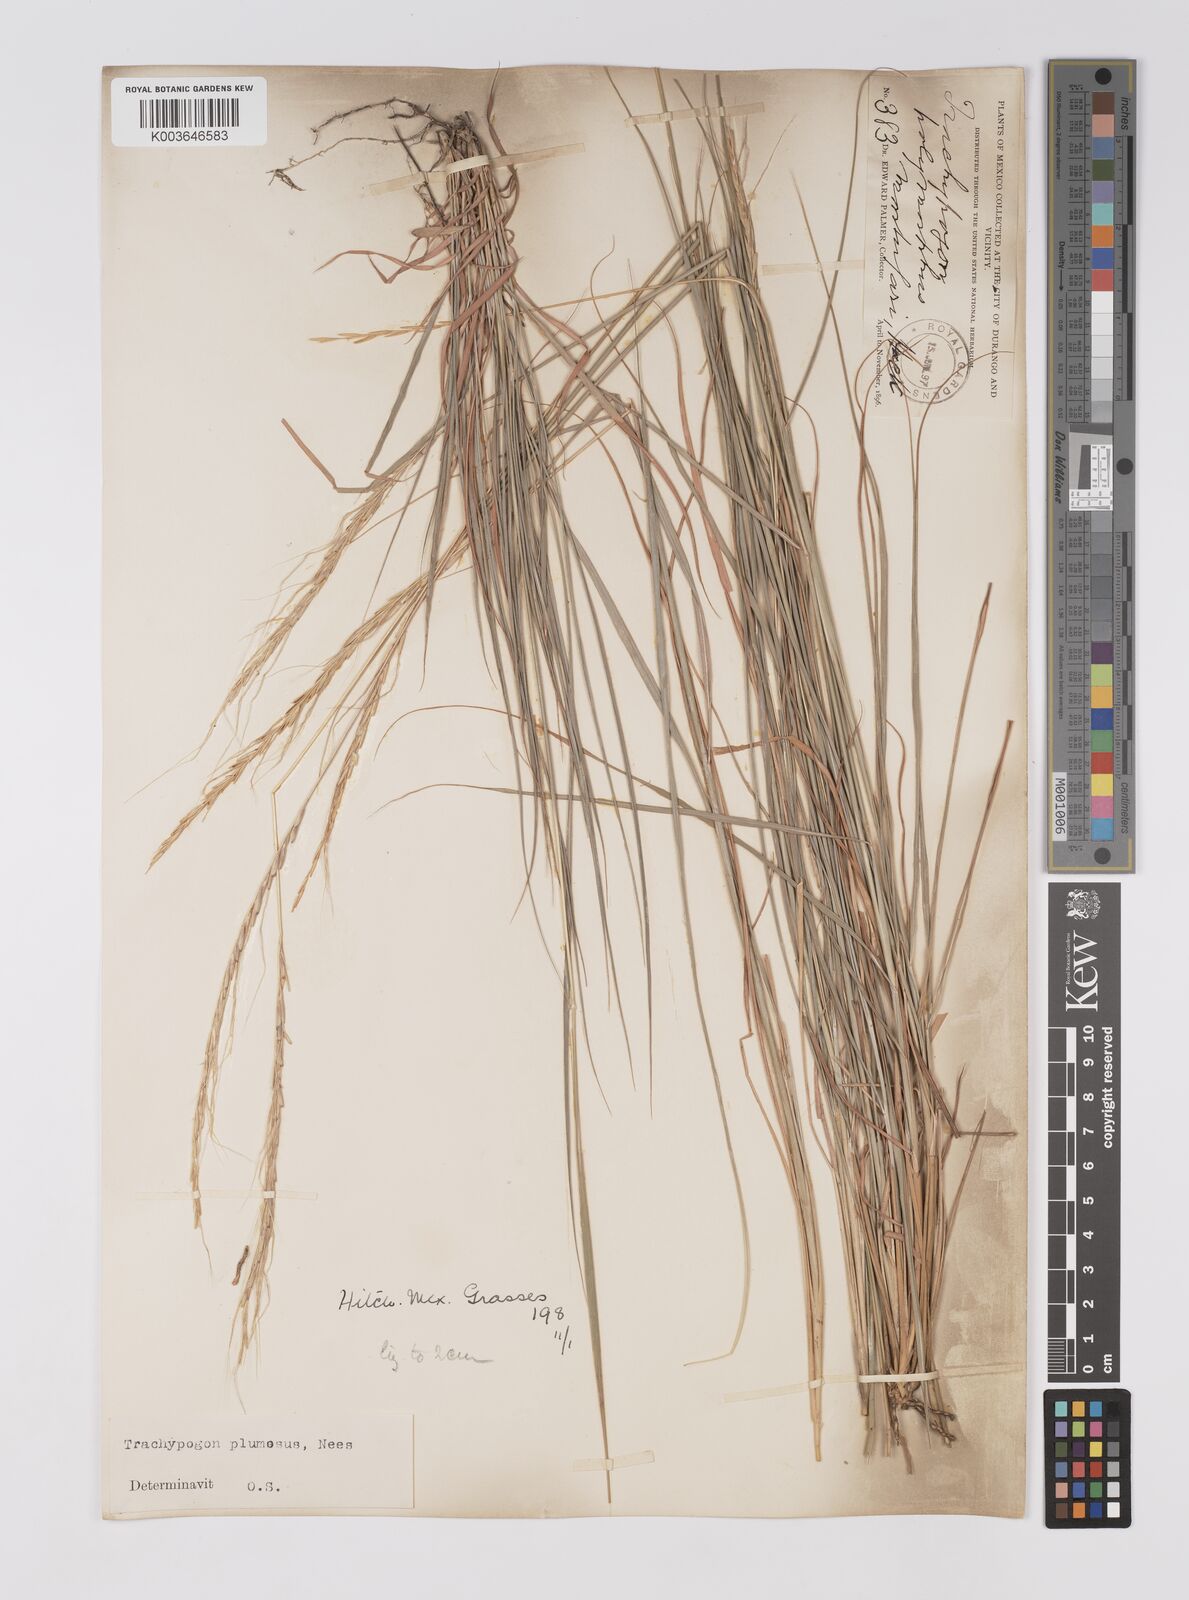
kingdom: Plantae
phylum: Tracheophyta
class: Liliopsida
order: Poales
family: Poaceae
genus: Trachypogon
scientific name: Trachypogon spicatus
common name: Crinkle-awn
